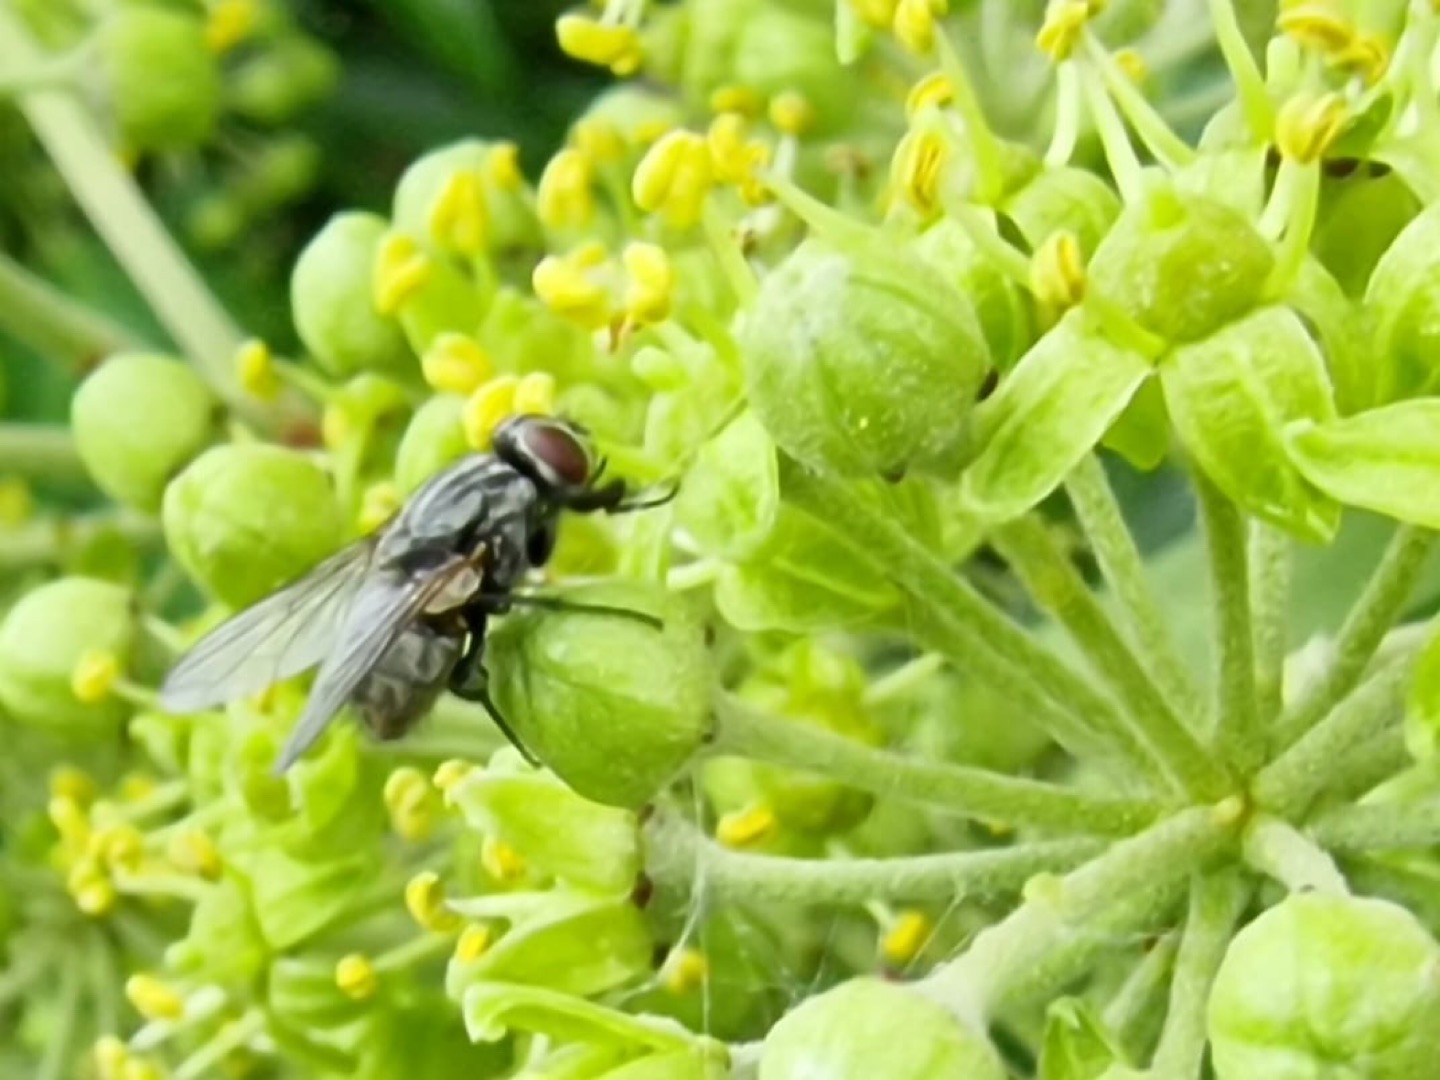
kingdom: Animalia
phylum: Arthropoda
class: Insecta
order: Diptera
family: Muscidae
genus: Musca
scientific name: Musca autumnalis
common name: Kvægflue
